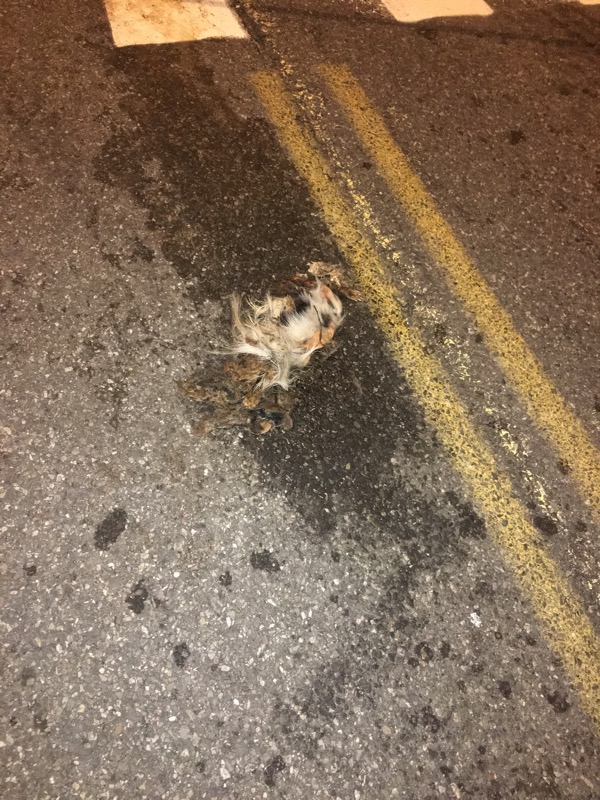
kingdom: Animalia
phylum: Chordata
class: Mammalia
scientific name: Mammalia
